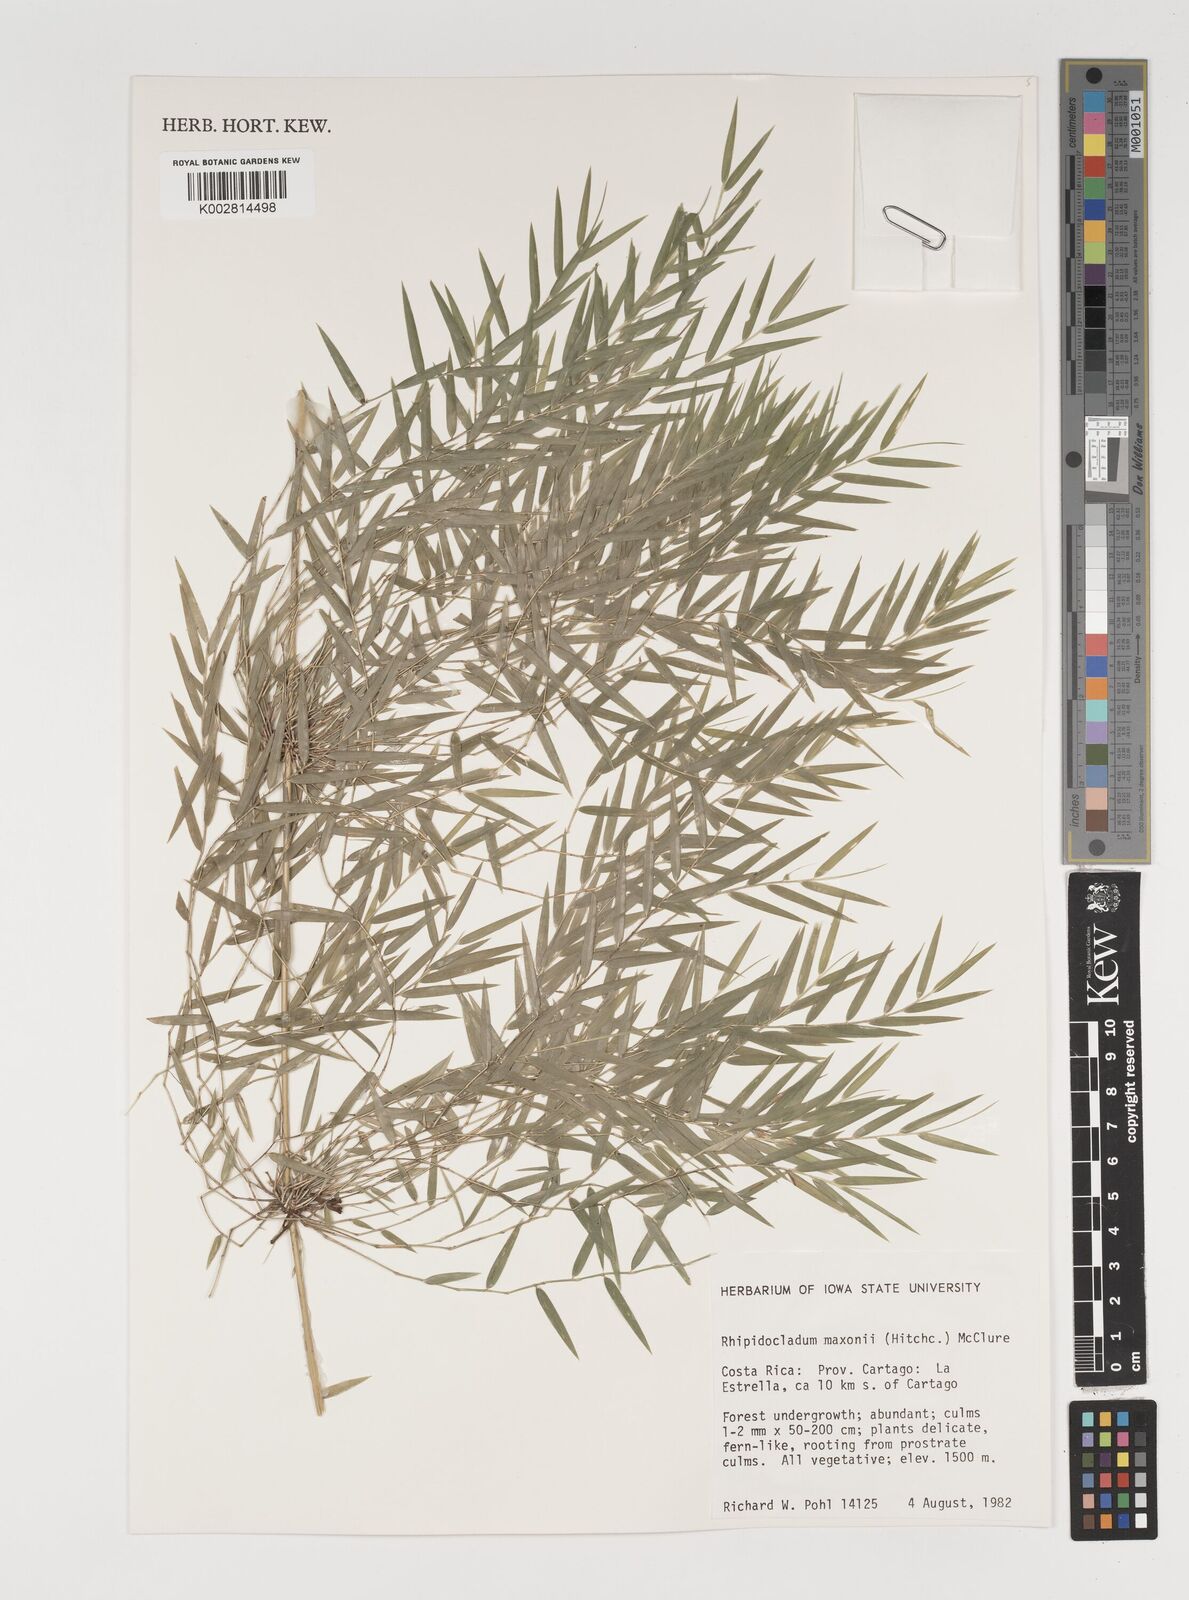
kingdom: Plantae
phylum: Tracheophyta
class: Liliopsida
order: Poales
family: Poaceae
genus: Rhipidocladum
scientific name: Rhipidocladum maxonii
